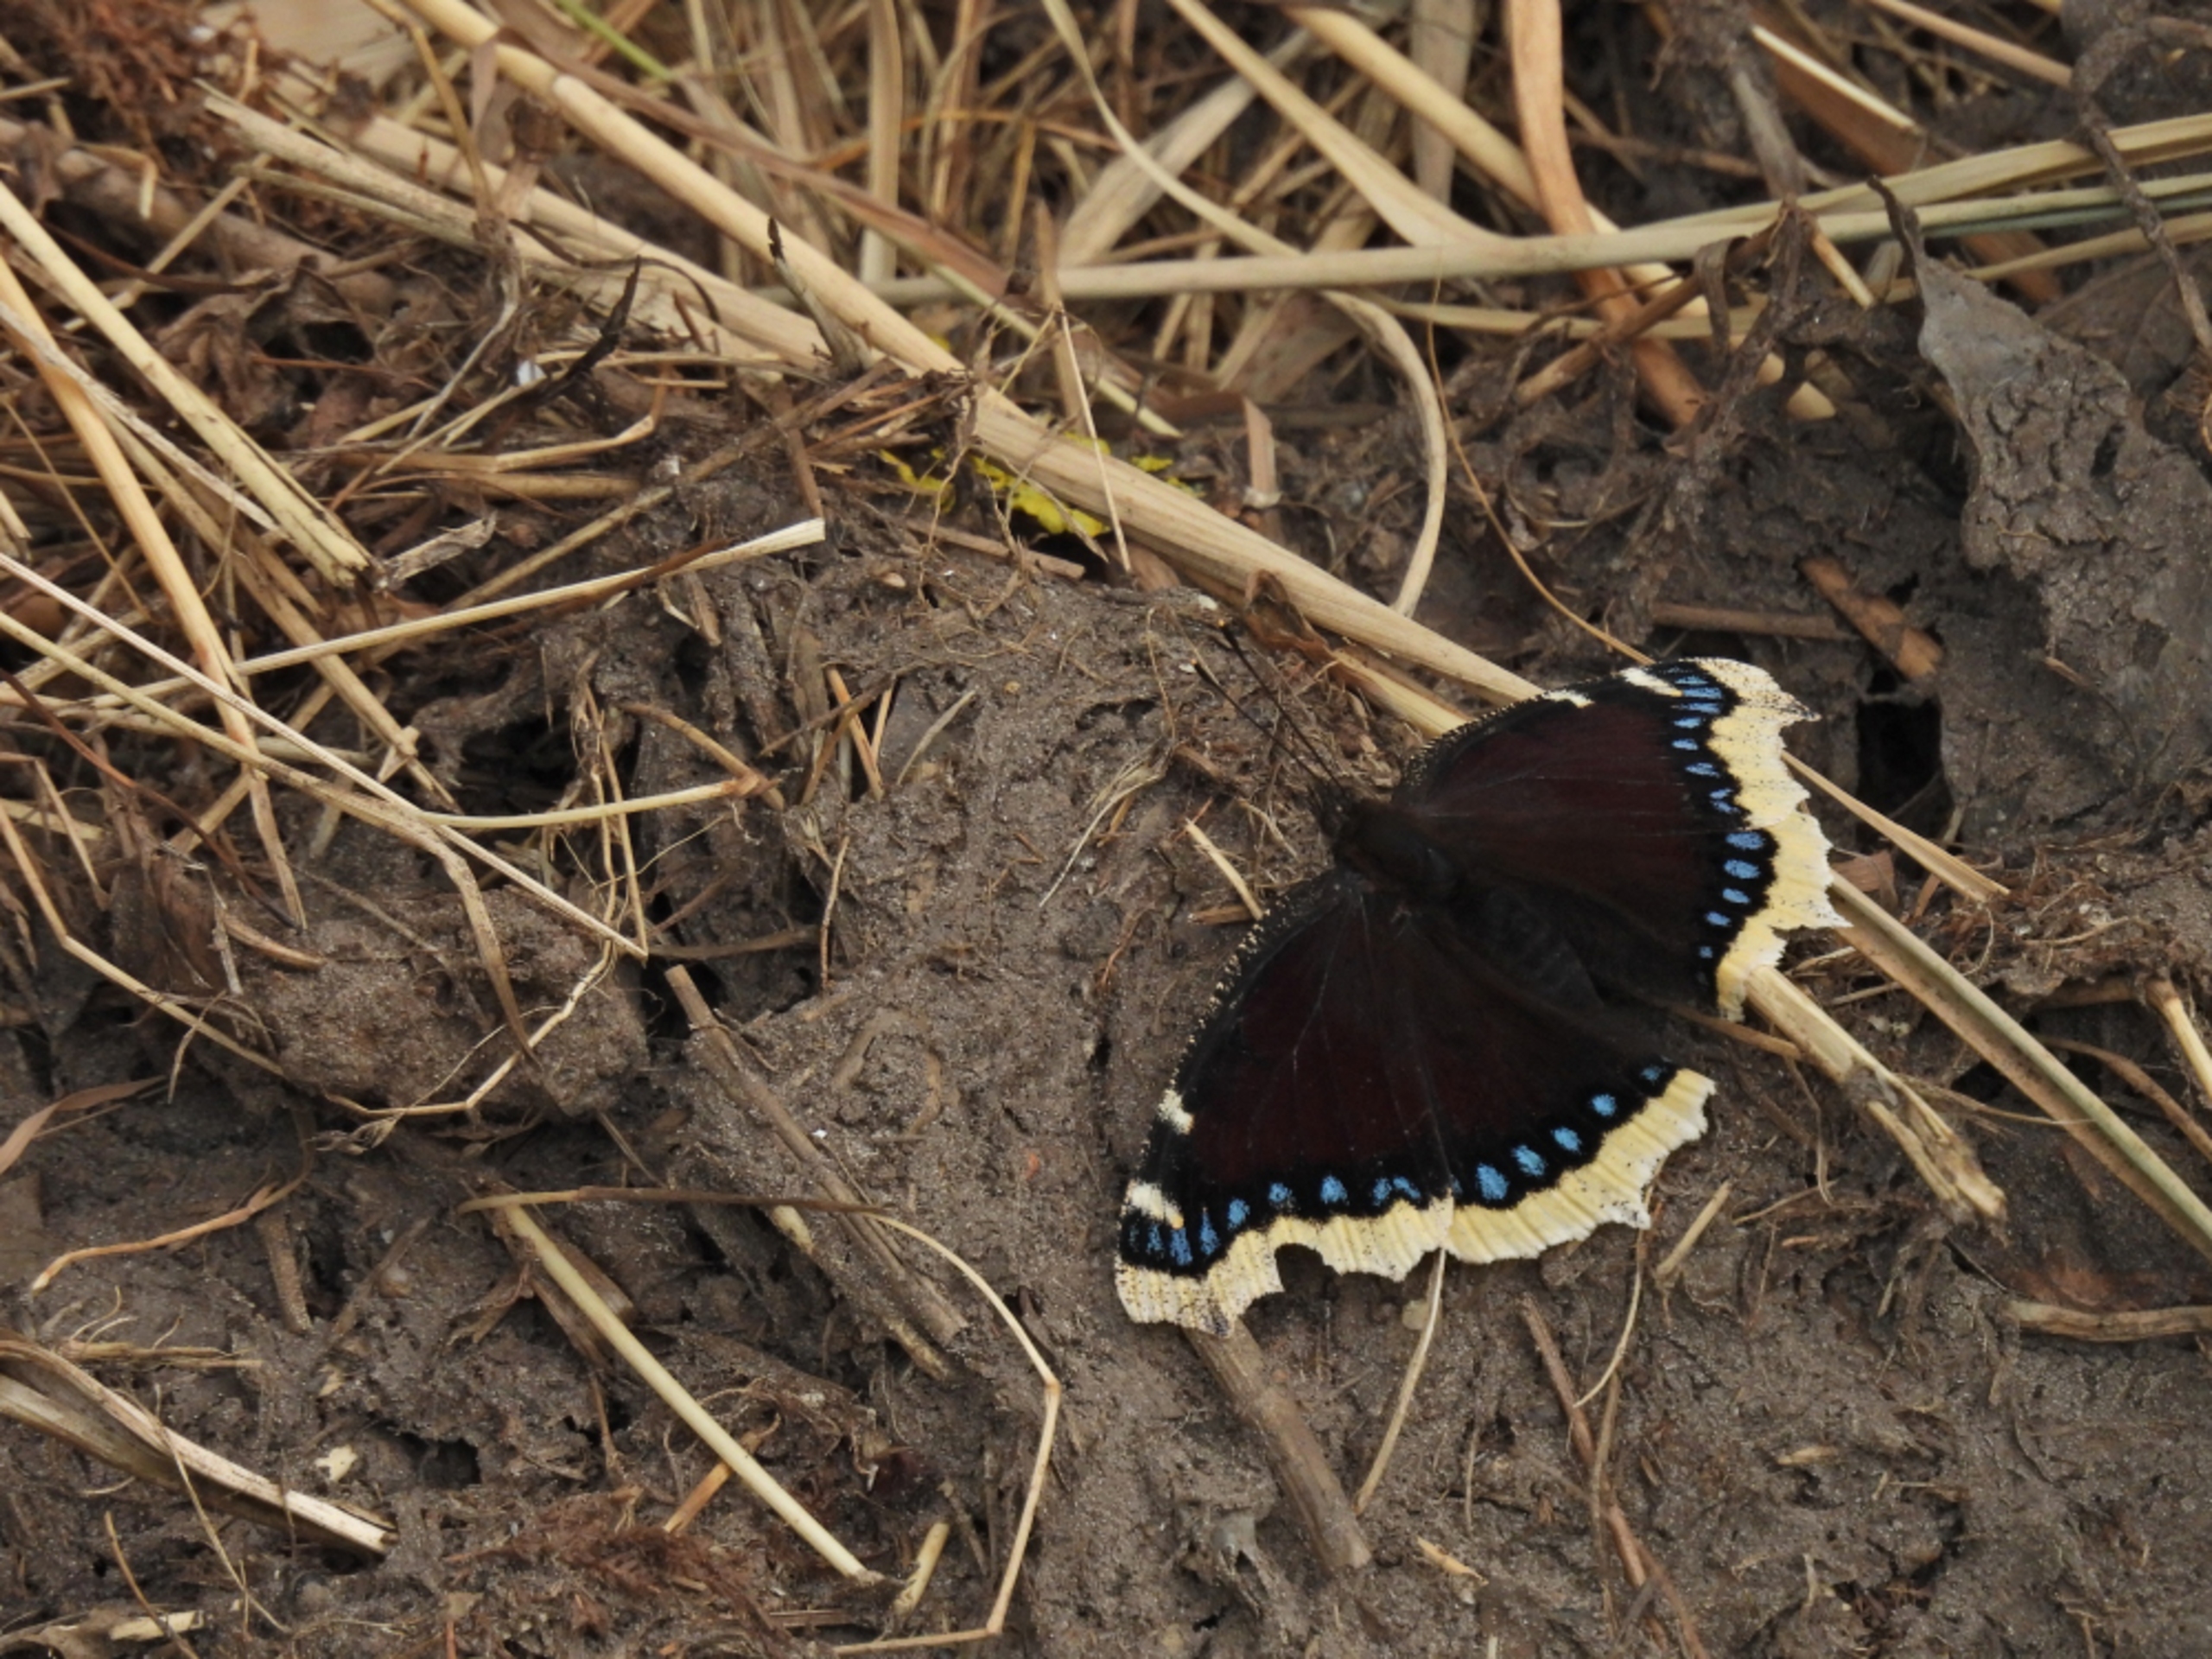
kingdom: Animalia
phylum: Arthropoda
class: Insecta
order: Lepidoptera
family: Nymphalidae
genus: Nymphalis
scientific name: Nymphalis antiopa
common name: Sørgekåbe
